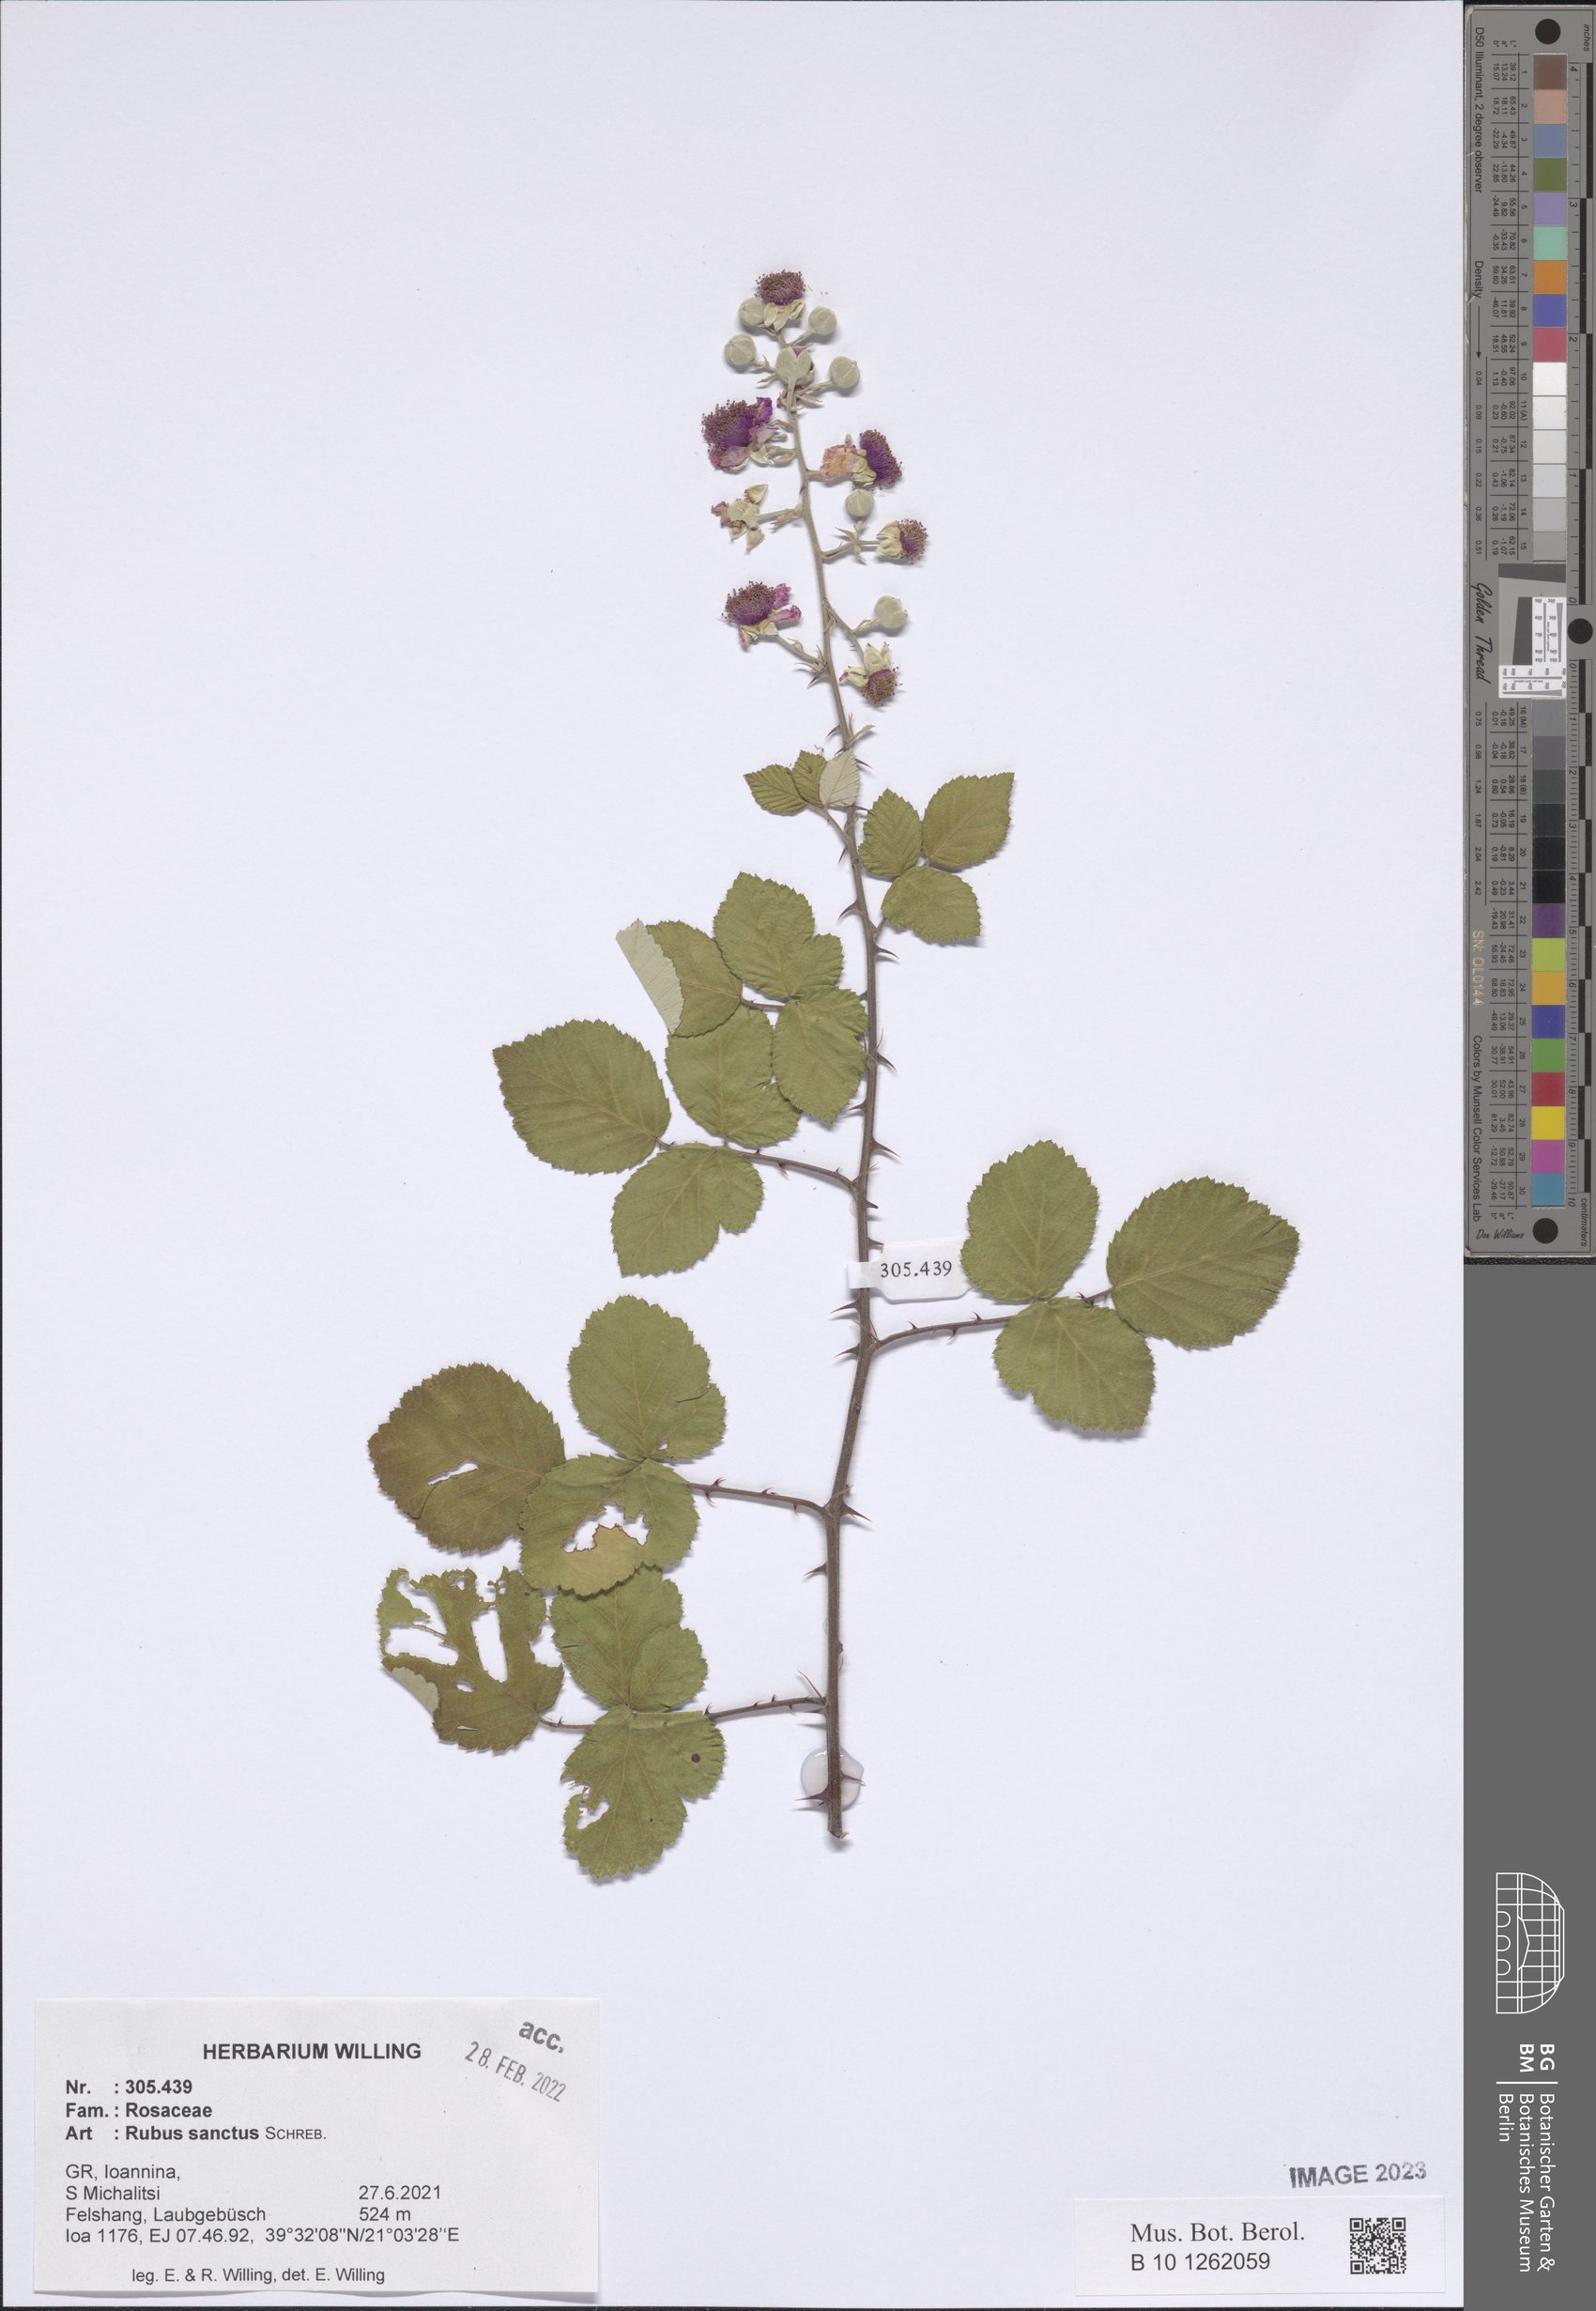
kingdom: Plantae
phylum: Tracheophyta
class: Magnoliopsida
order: Rosales
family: Rosaceae
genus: Rubus
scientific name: Rubus sanctus
